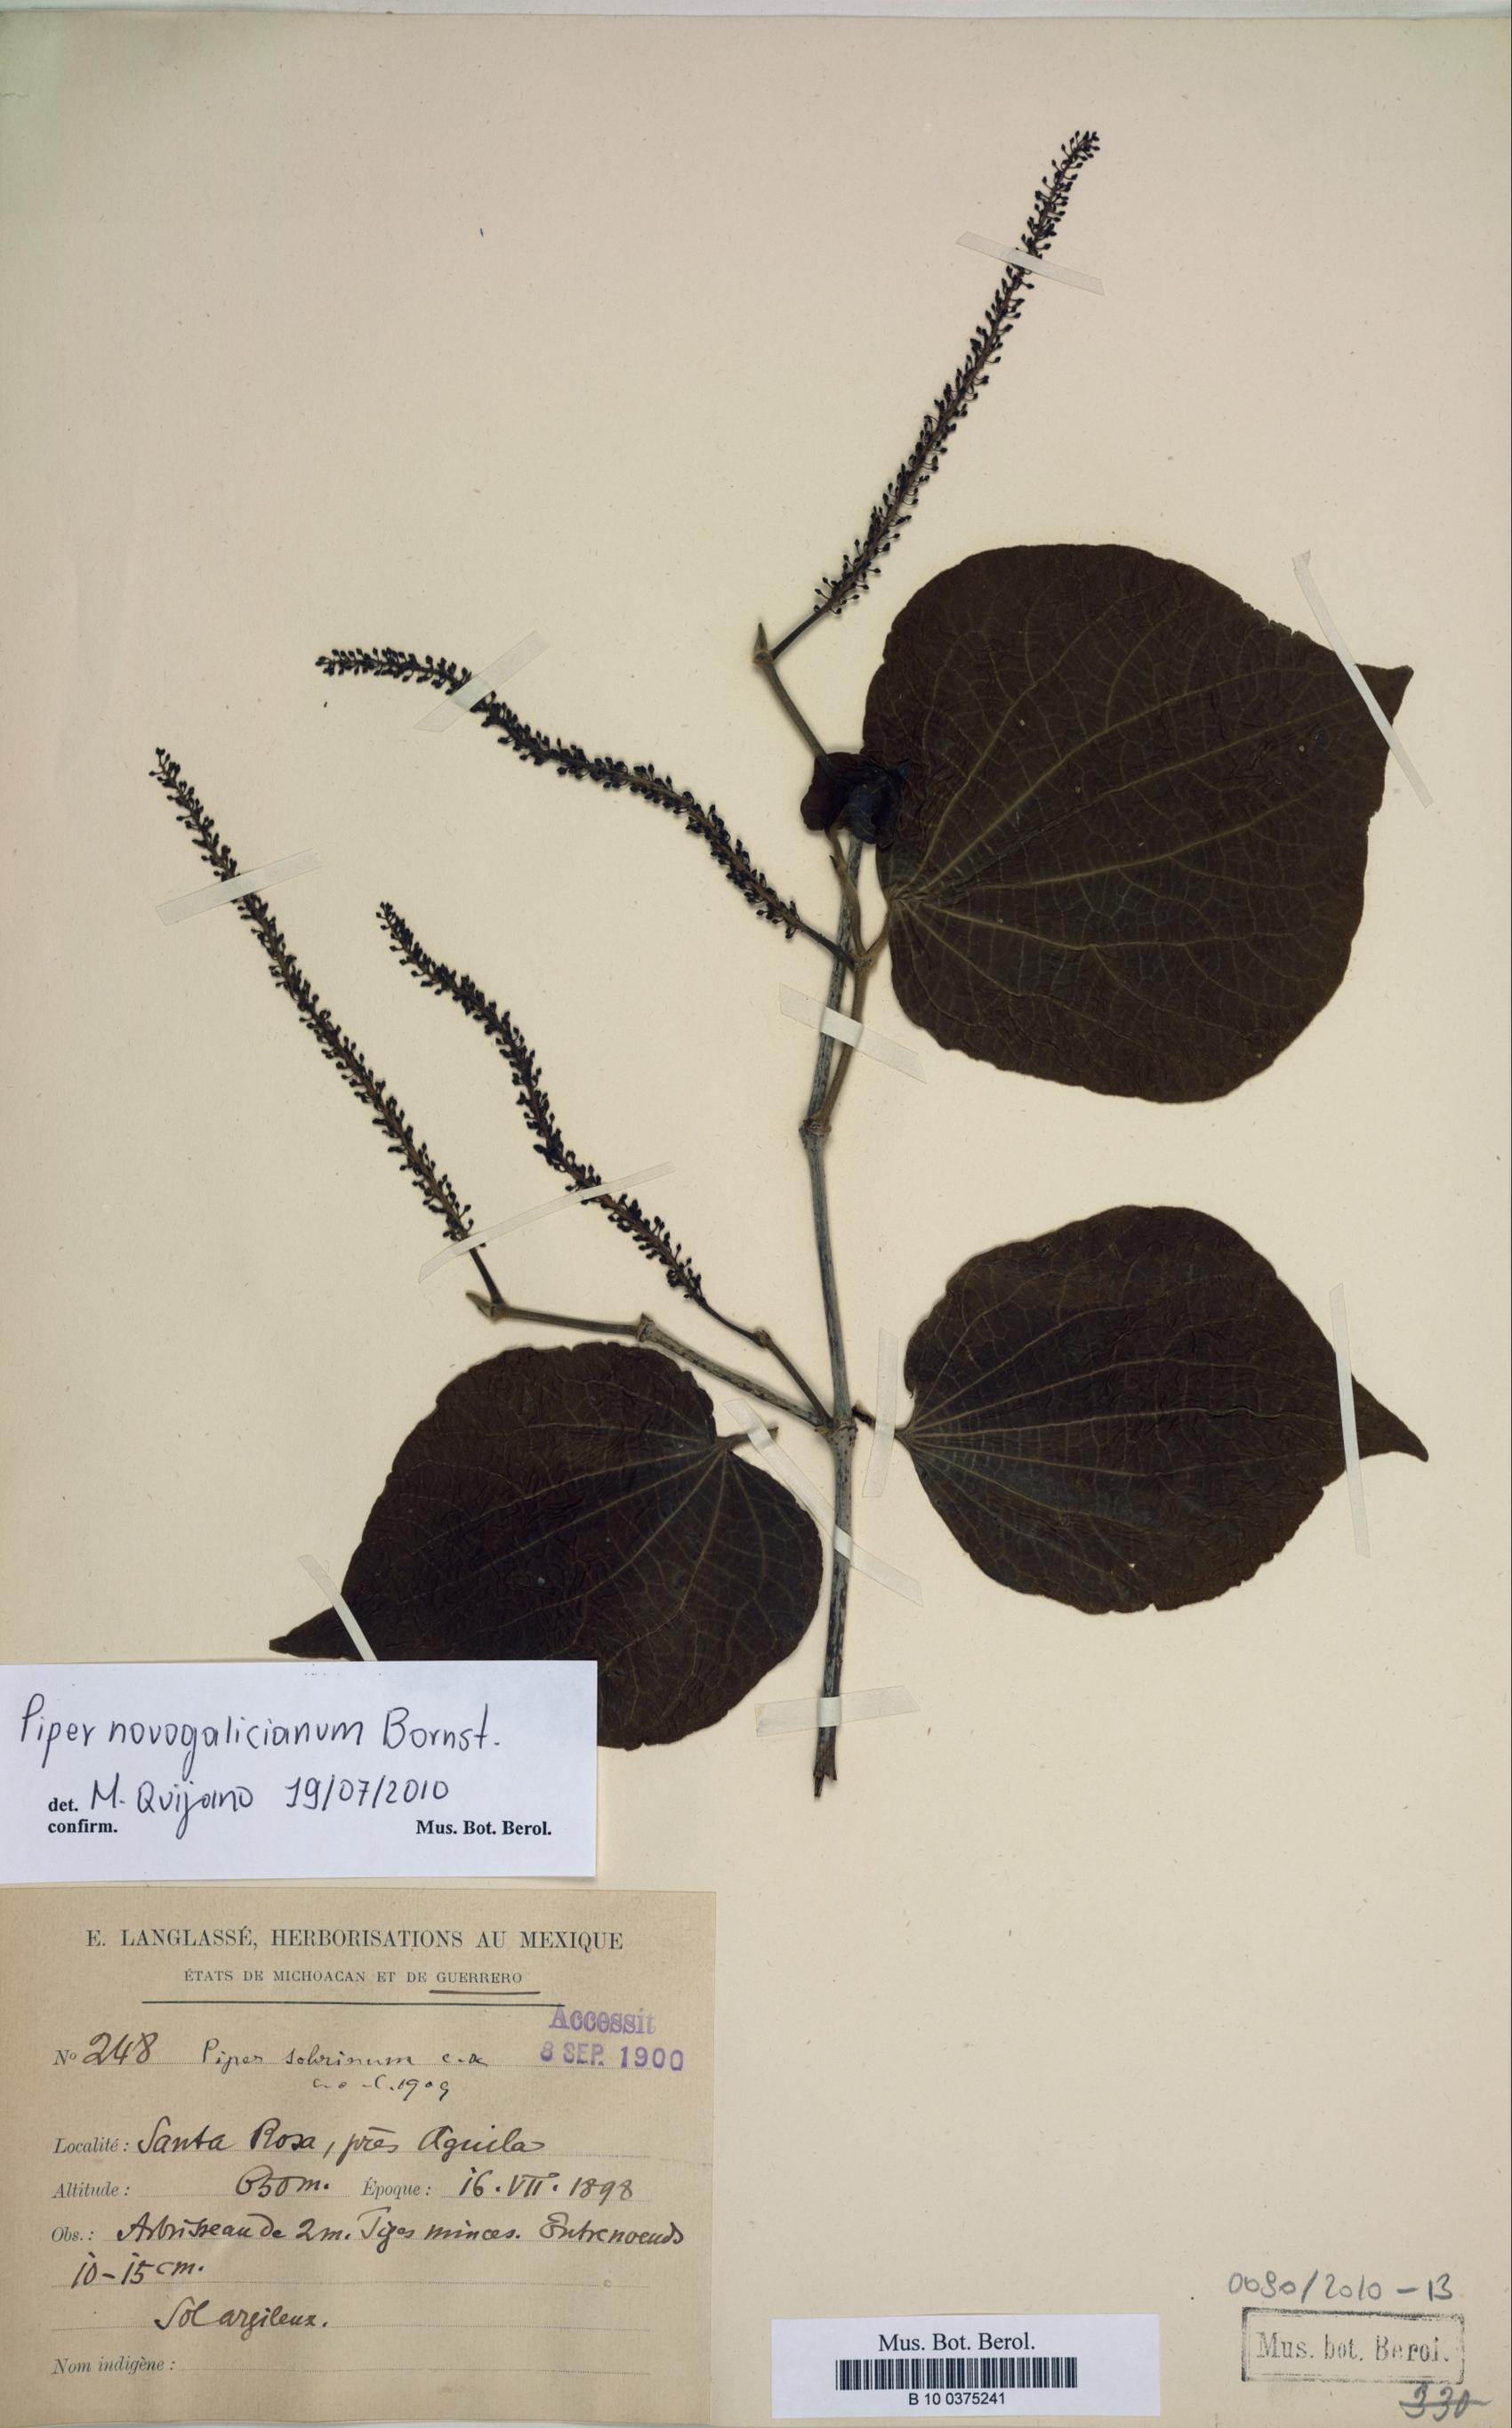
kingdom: Plantae
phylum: Tracheophyta
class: Magnoliopsida
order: Piperales
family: Piperaceae
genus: Piper
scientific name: Piper novogalicianum
